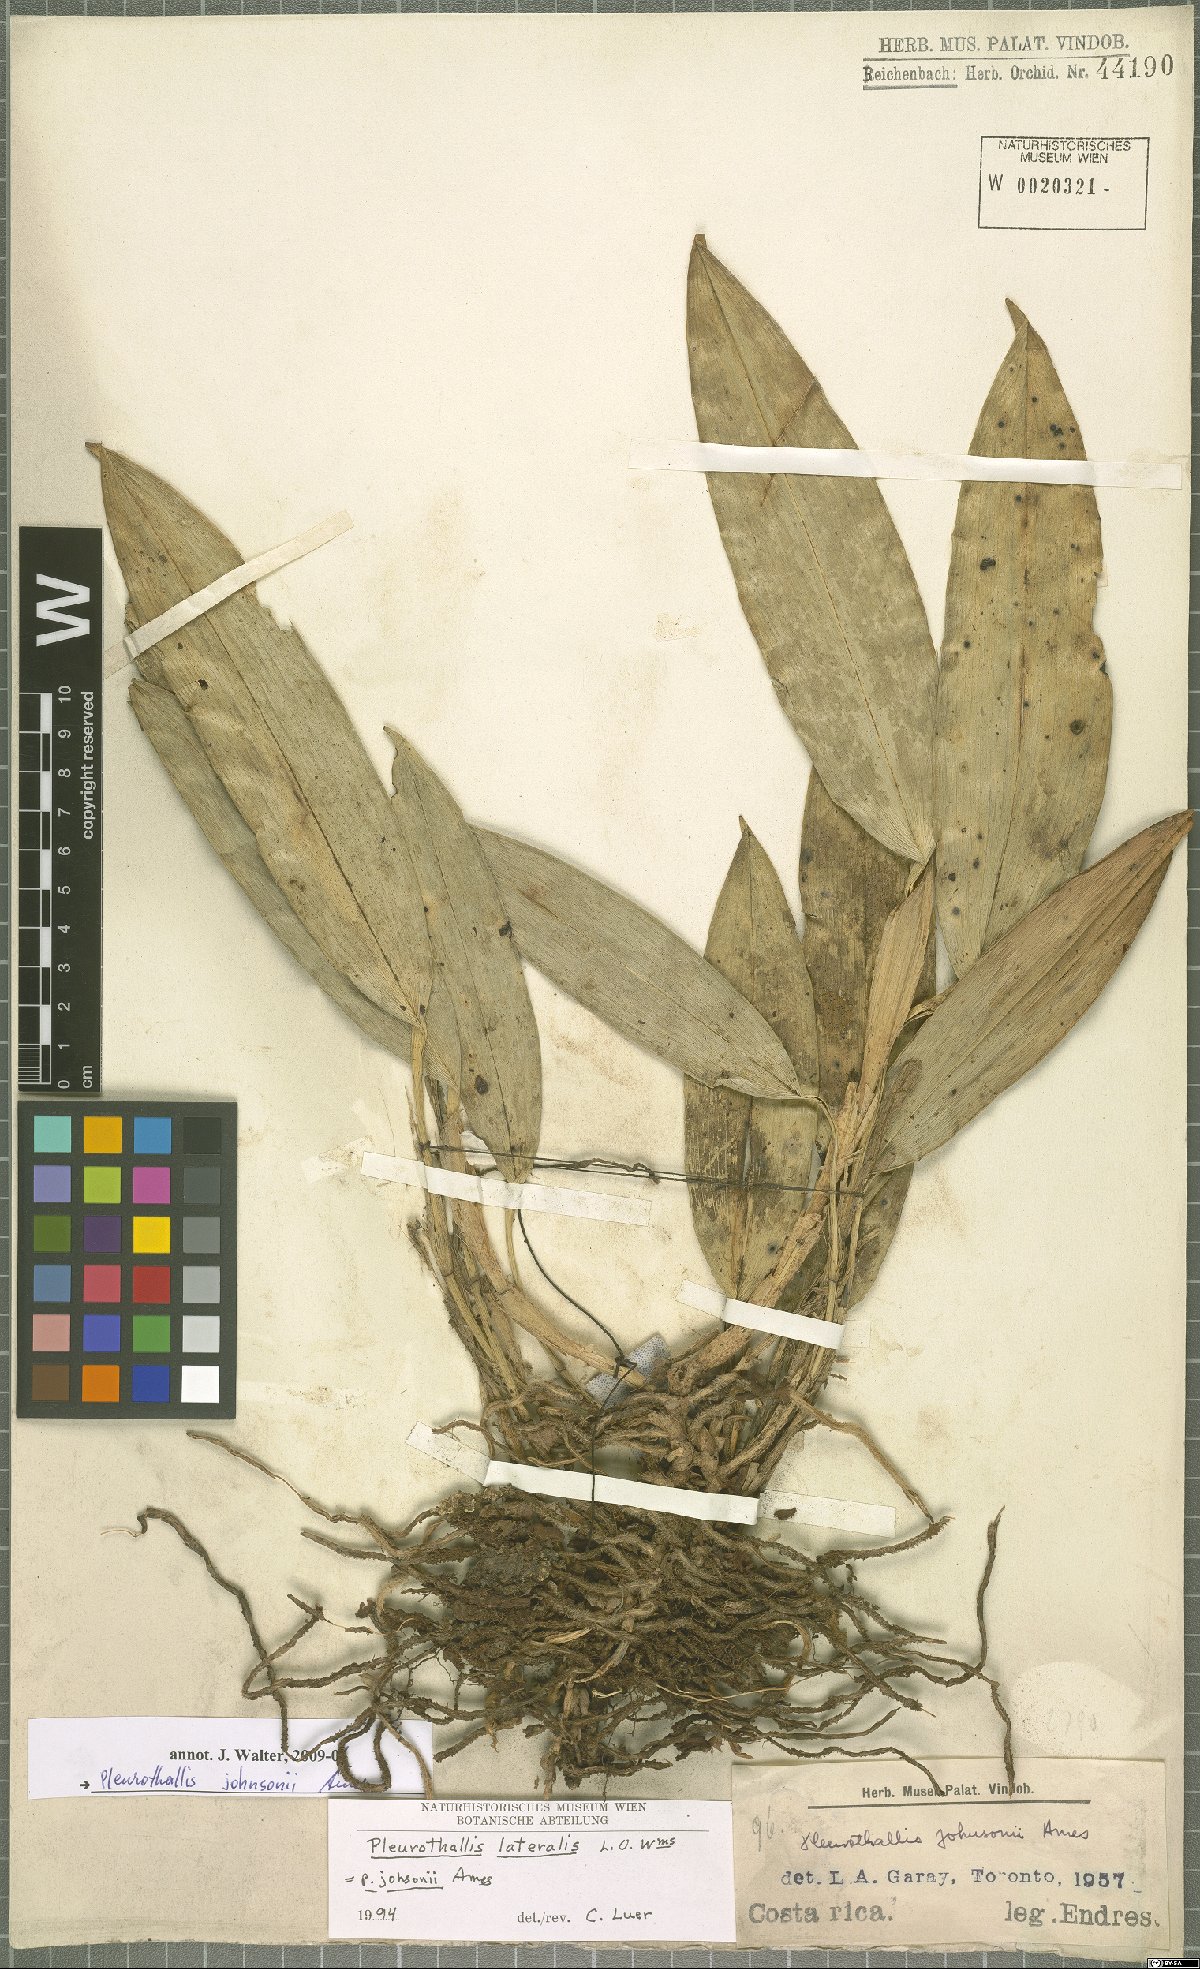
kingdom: Plantae
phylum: Tracheophyta
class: Liliopsida
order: Asparagales
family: Orchidaceae
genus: Acianthera
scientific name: Acianthera johnsonii
